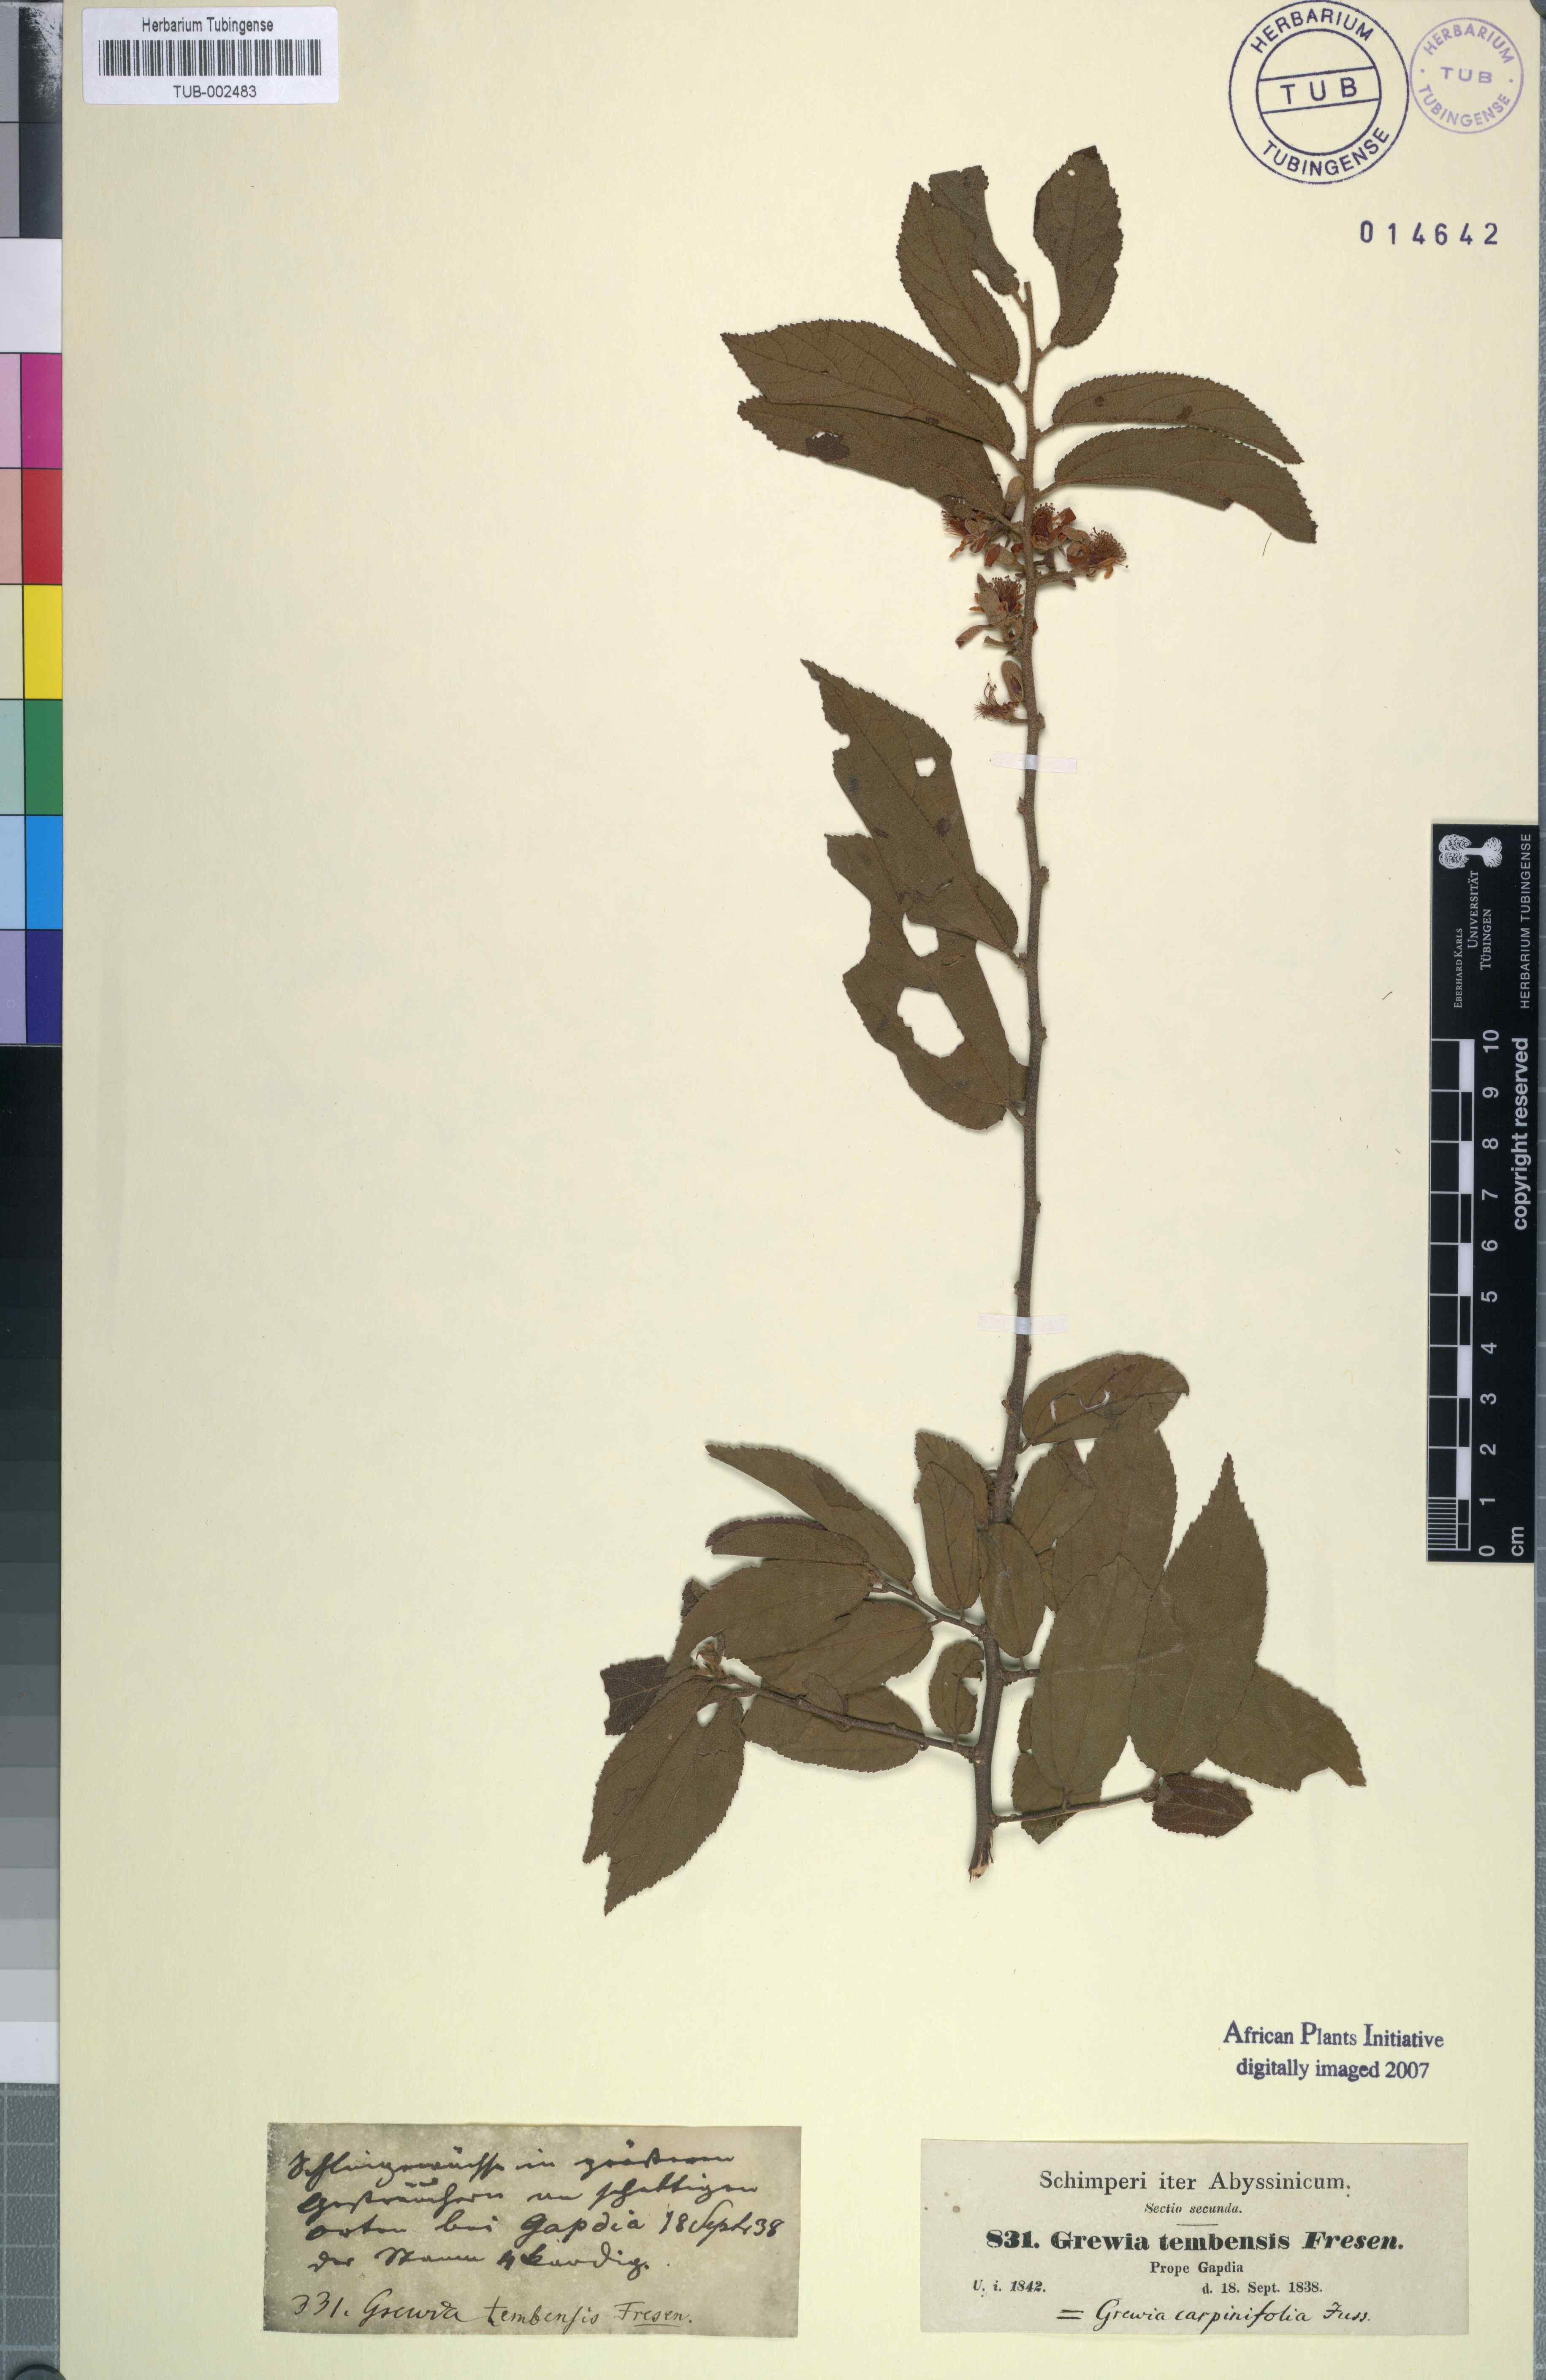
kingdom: Plantae
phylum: Tracheophyta
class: Magnoliopsida
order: Malvales
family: Malvaceae
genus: Grewia
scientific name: Grewia carpinifolia
